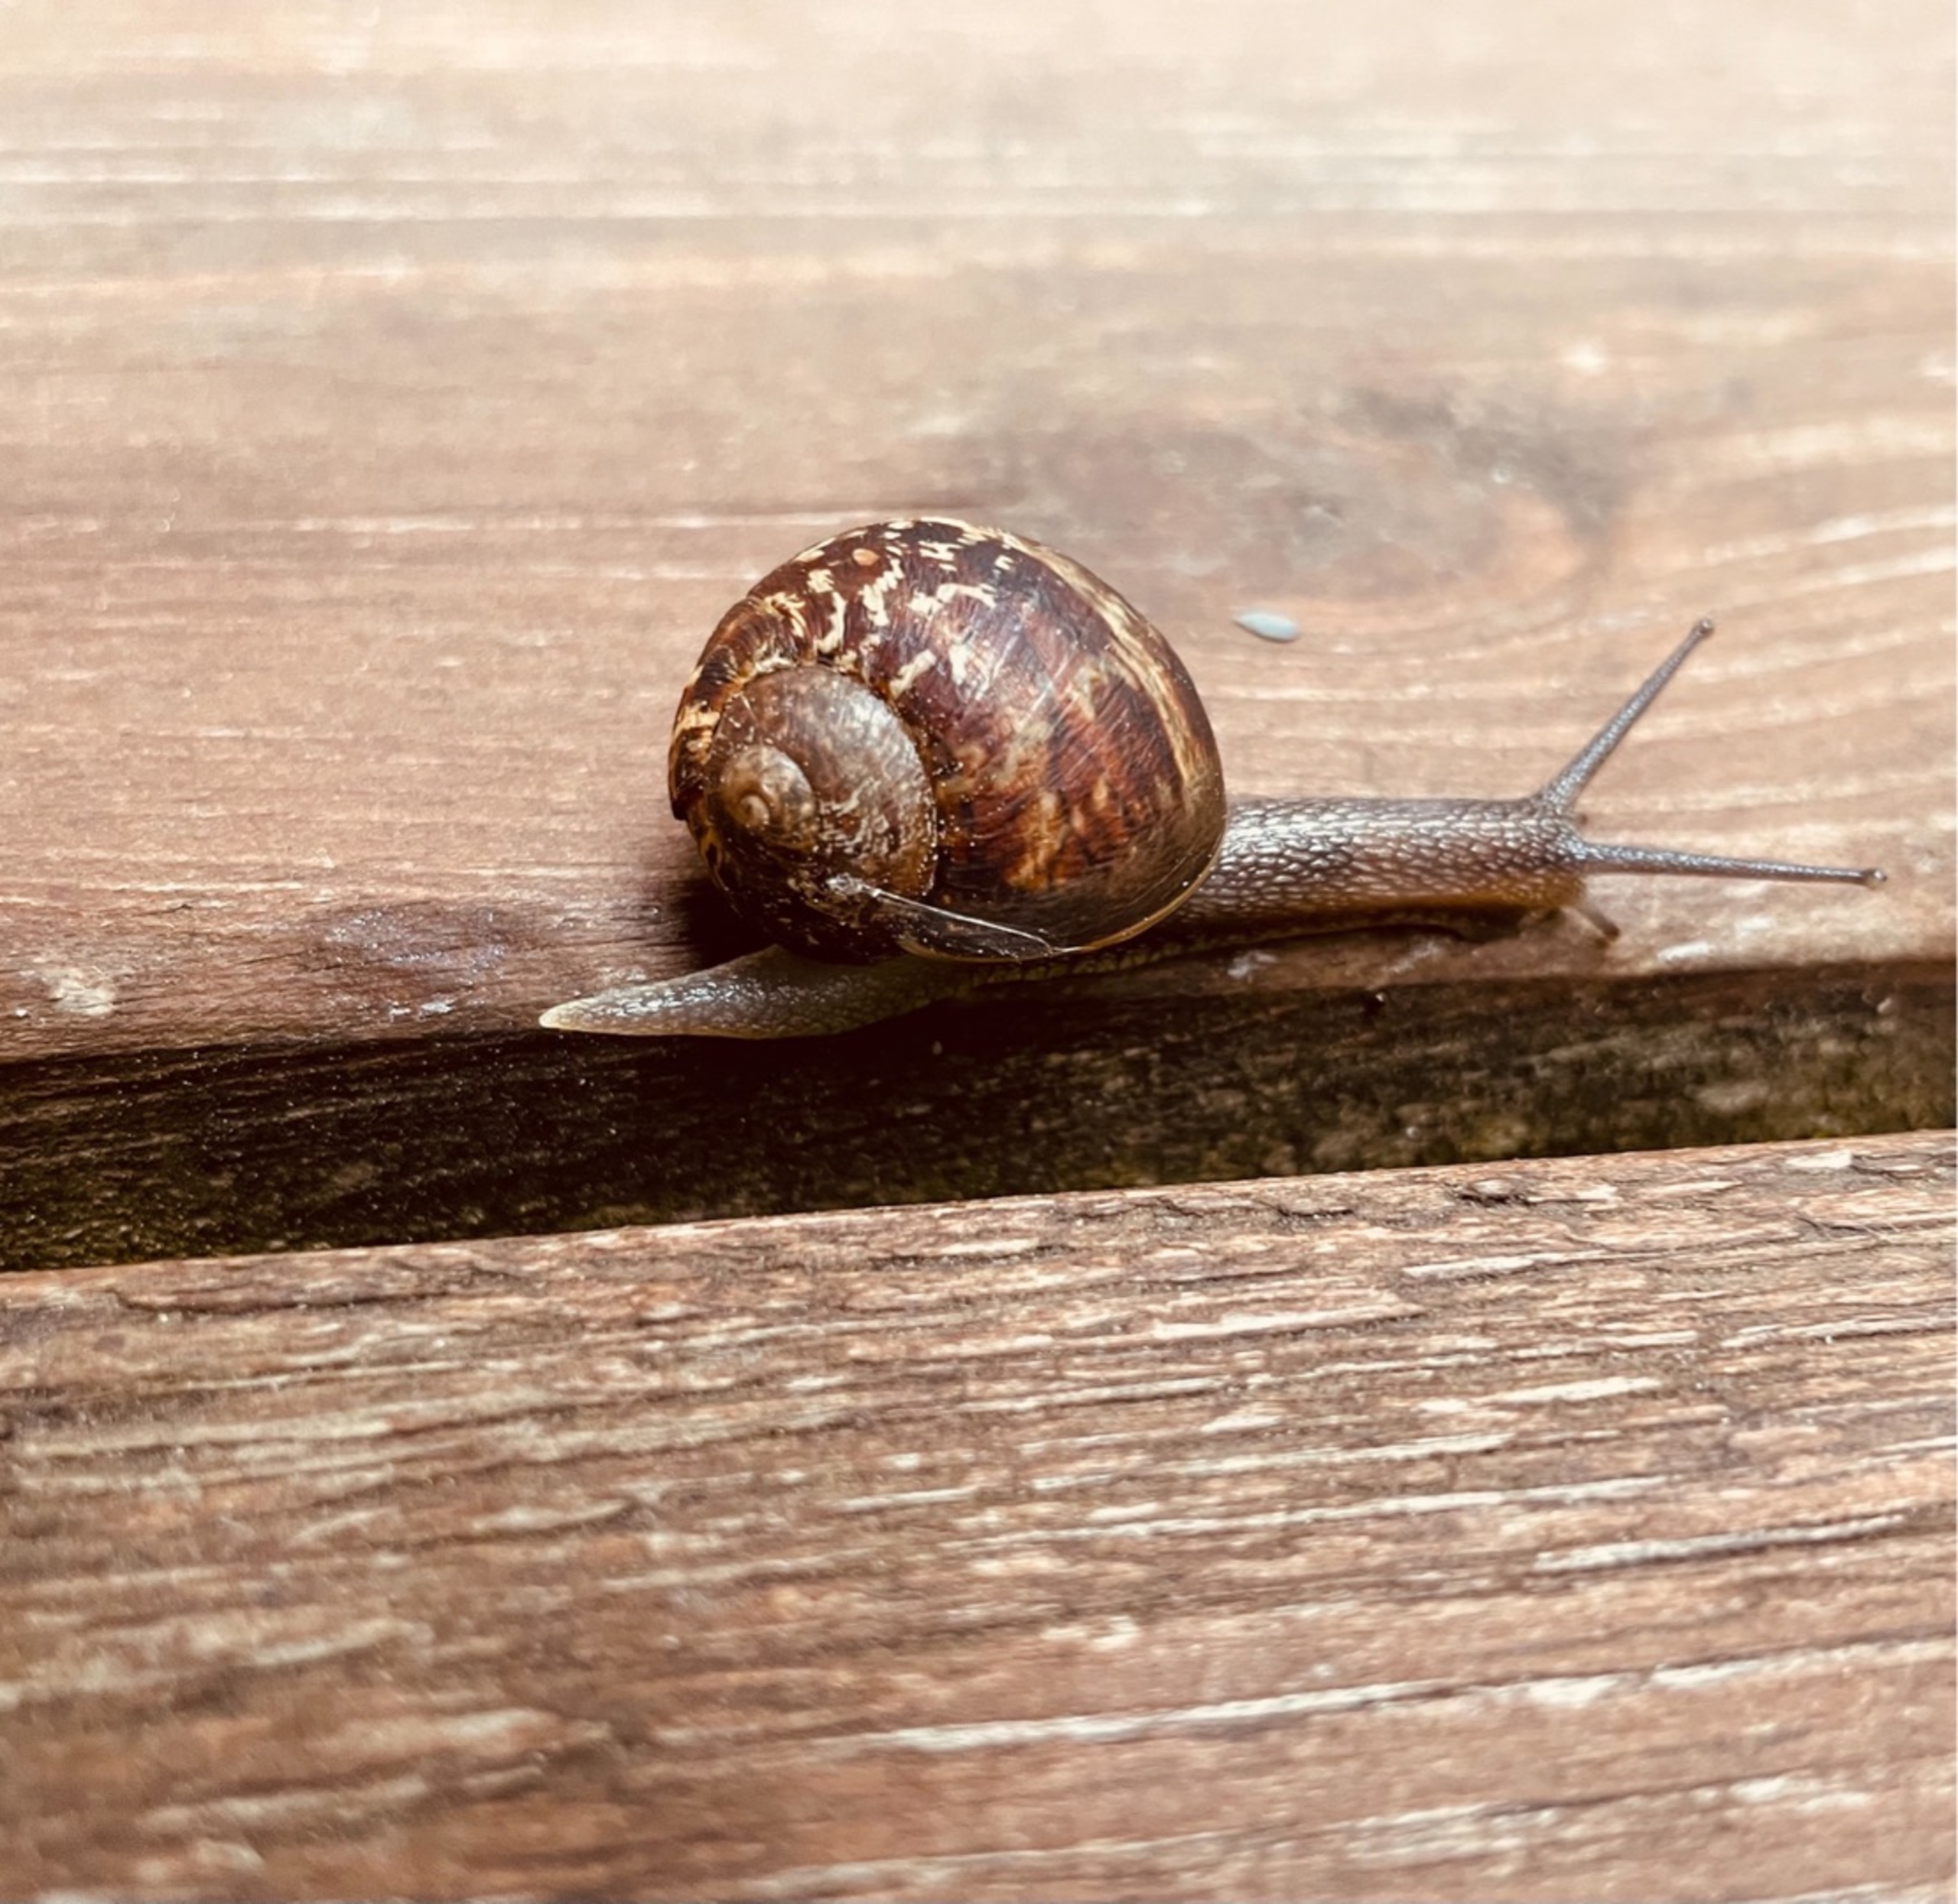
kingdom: Animalia
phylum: Mollusca
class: Gastropoda
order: Stylommatophora
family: Helicidae
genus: Cornu
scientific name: Cornu aspersum
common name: Plettet voldsnegl
